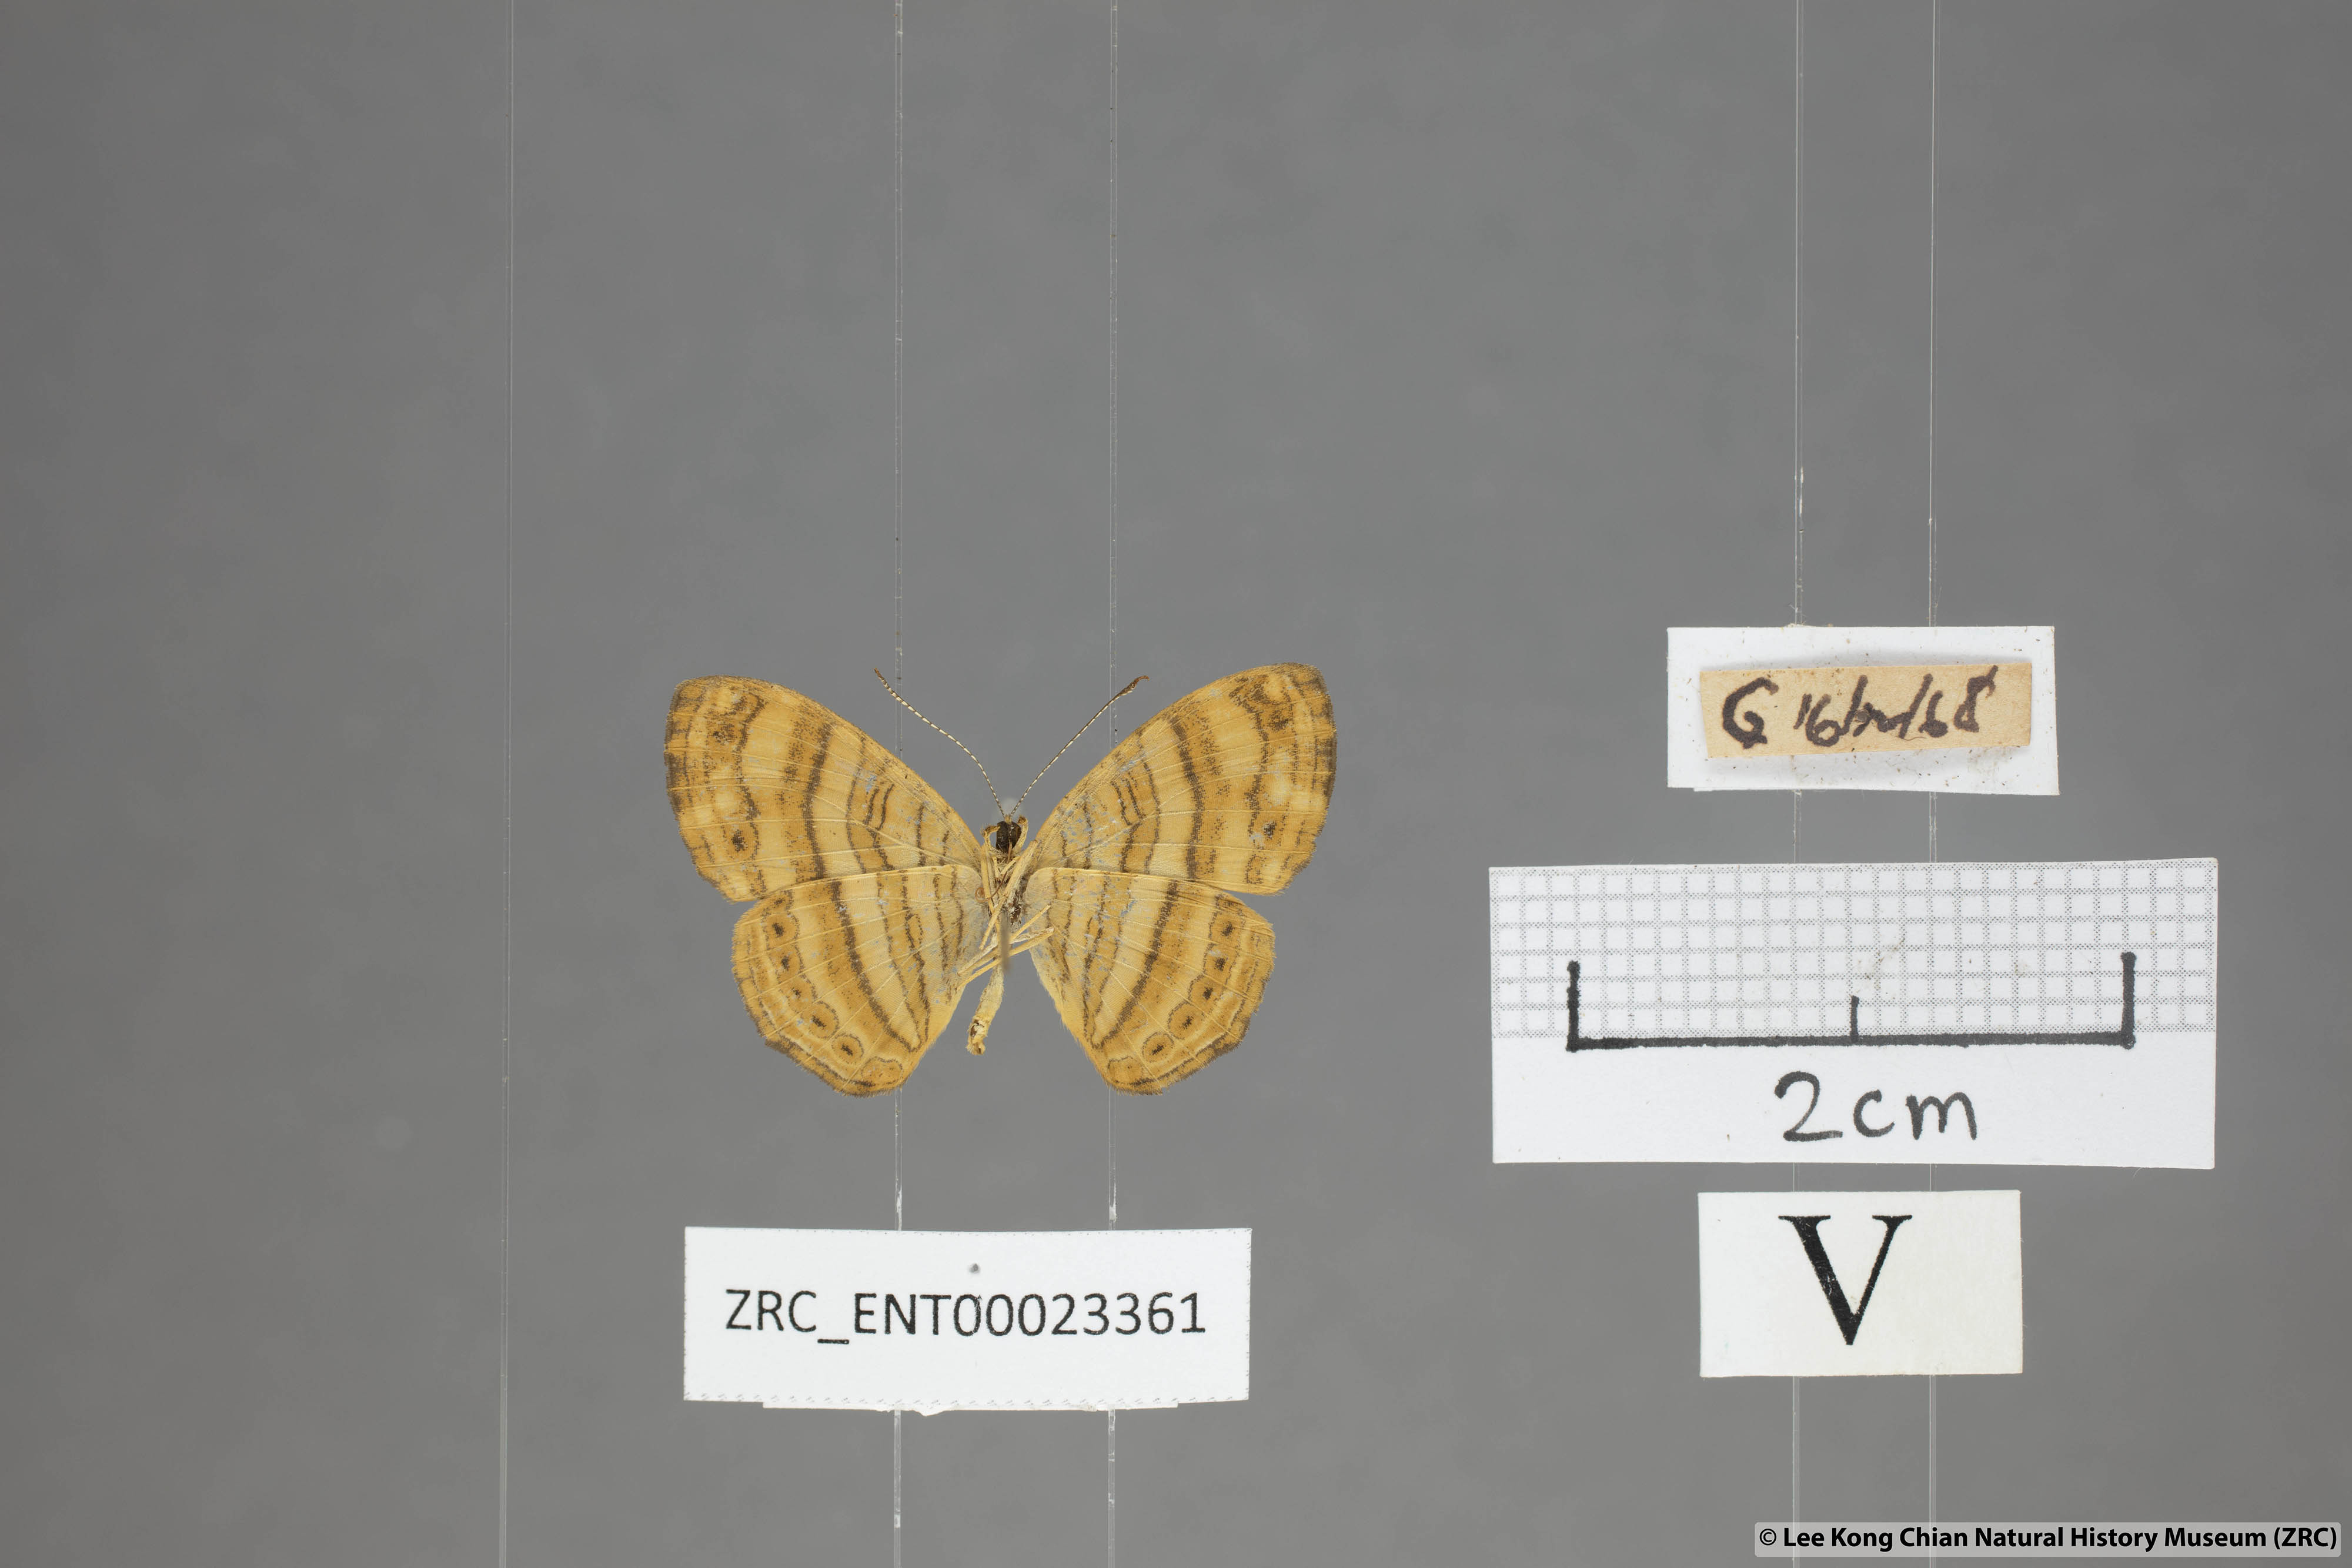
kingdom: Animalia
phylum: Arthropoda
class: Insecta
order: Lepidoptera
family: Nymphalidae
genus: Chersonesia
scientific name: Chersonesia peraka
